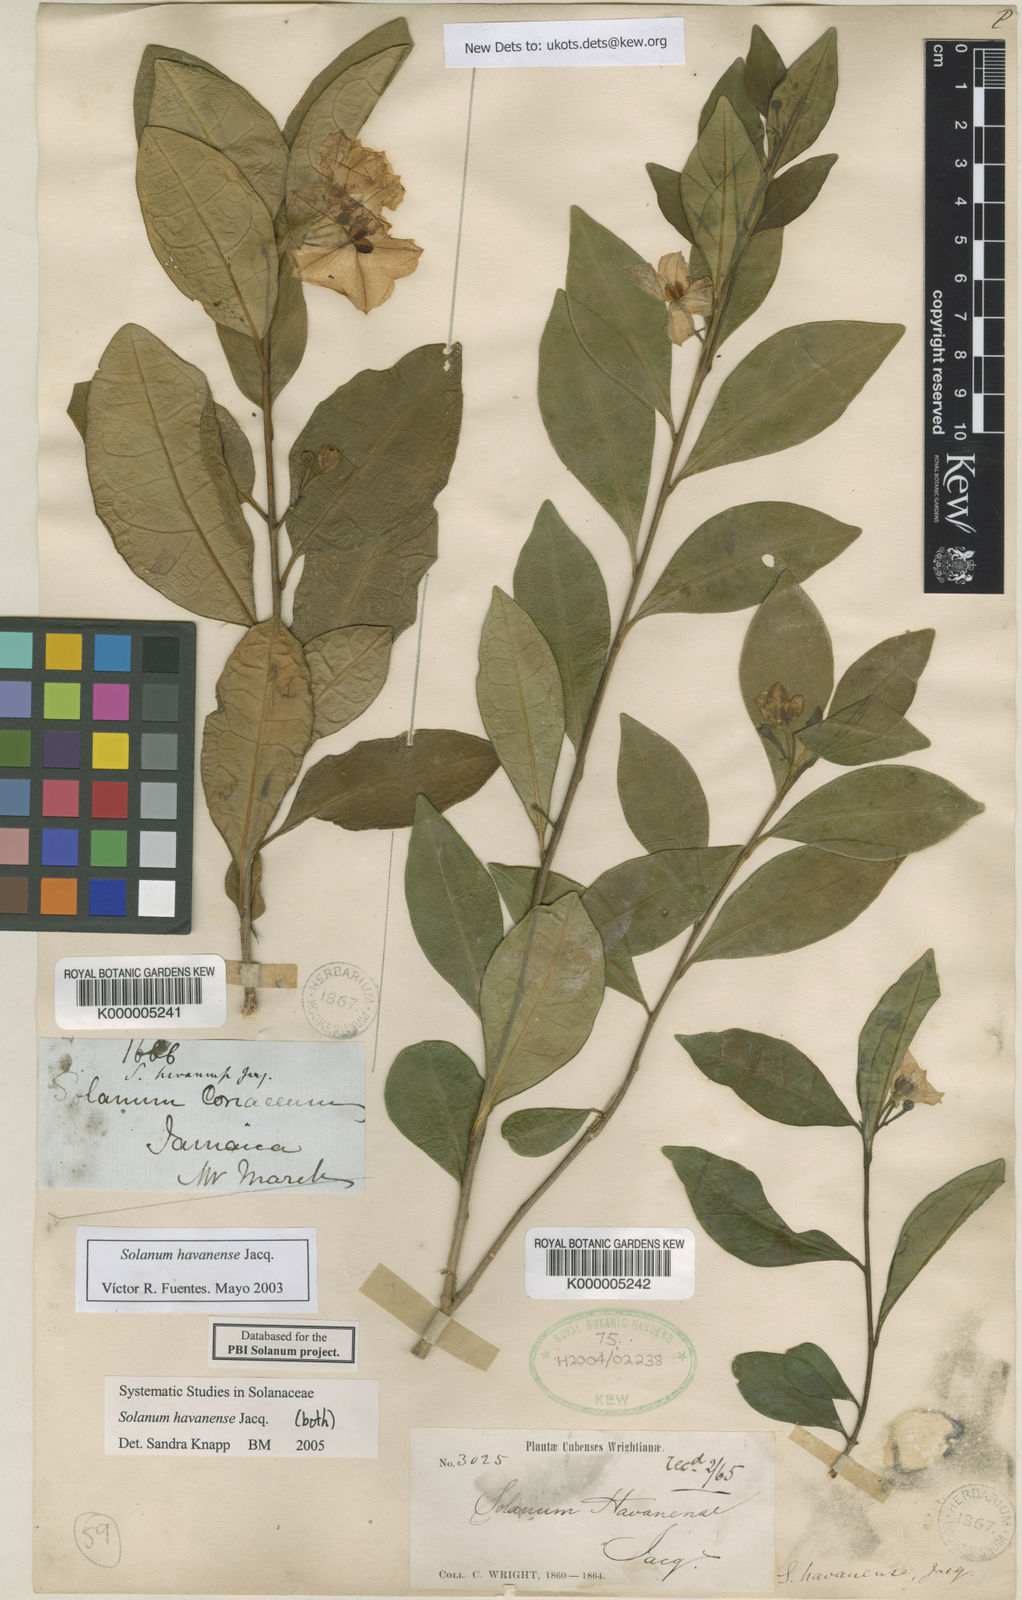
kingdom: Plantae
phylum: Tracheophyta
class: Magnoliopsida
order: Solanales
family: Solanaceae
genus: Solanum
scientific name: Solanum havanense
